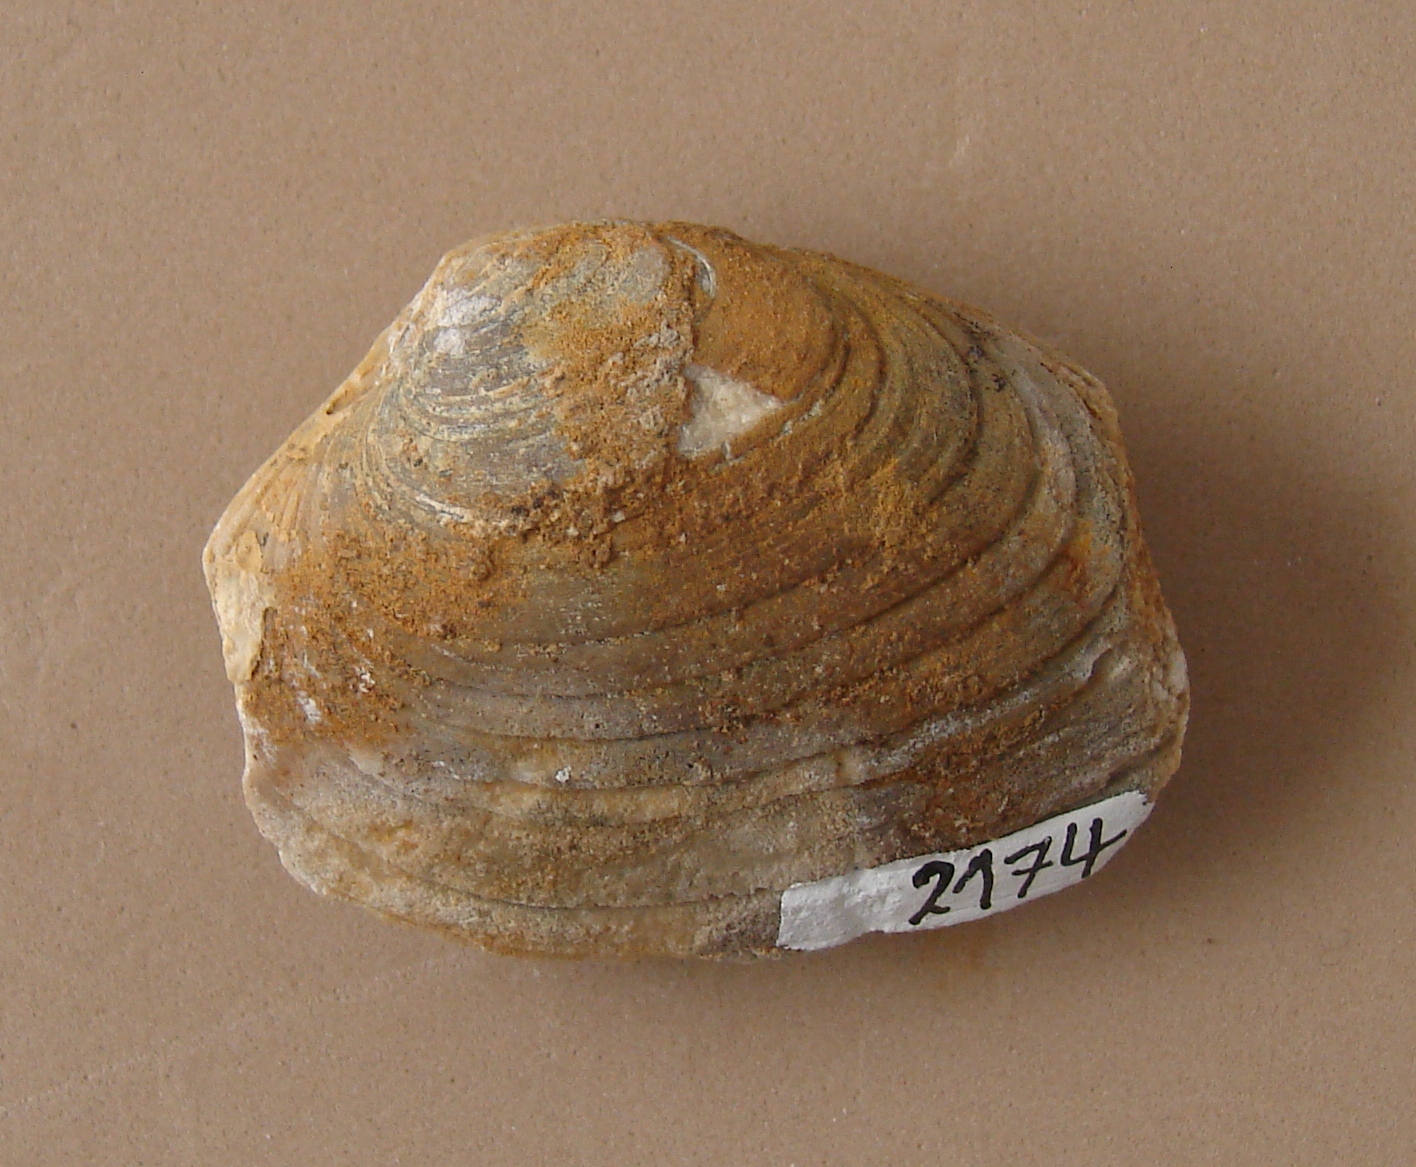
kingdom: Animalia
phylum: Mollusca
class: Bivalvia
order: Carditida
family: Cardiniidae
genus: Cardinia
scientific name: Cardinia
